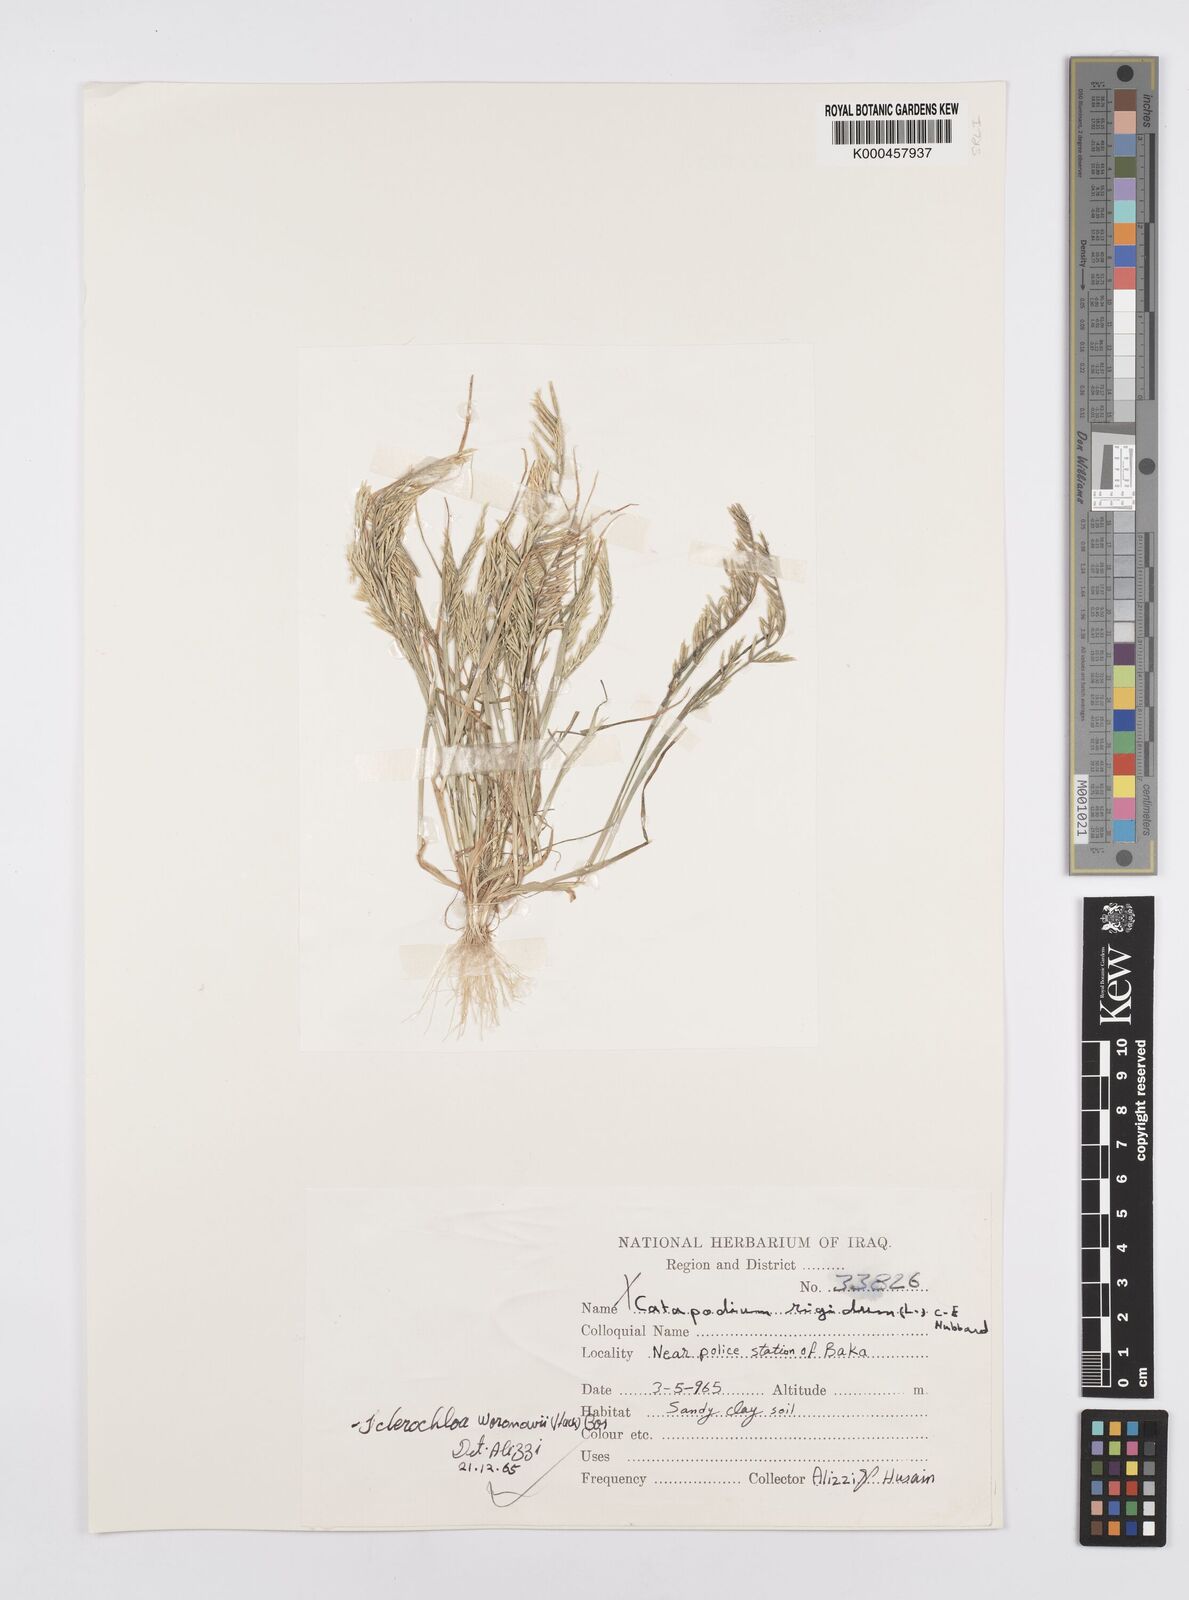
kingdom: Plantae
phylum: Tracheophyta
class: Liliopsida
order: Poales
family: Poaceae
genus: Sclerochloa
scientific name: Sclerochloa woronowii
